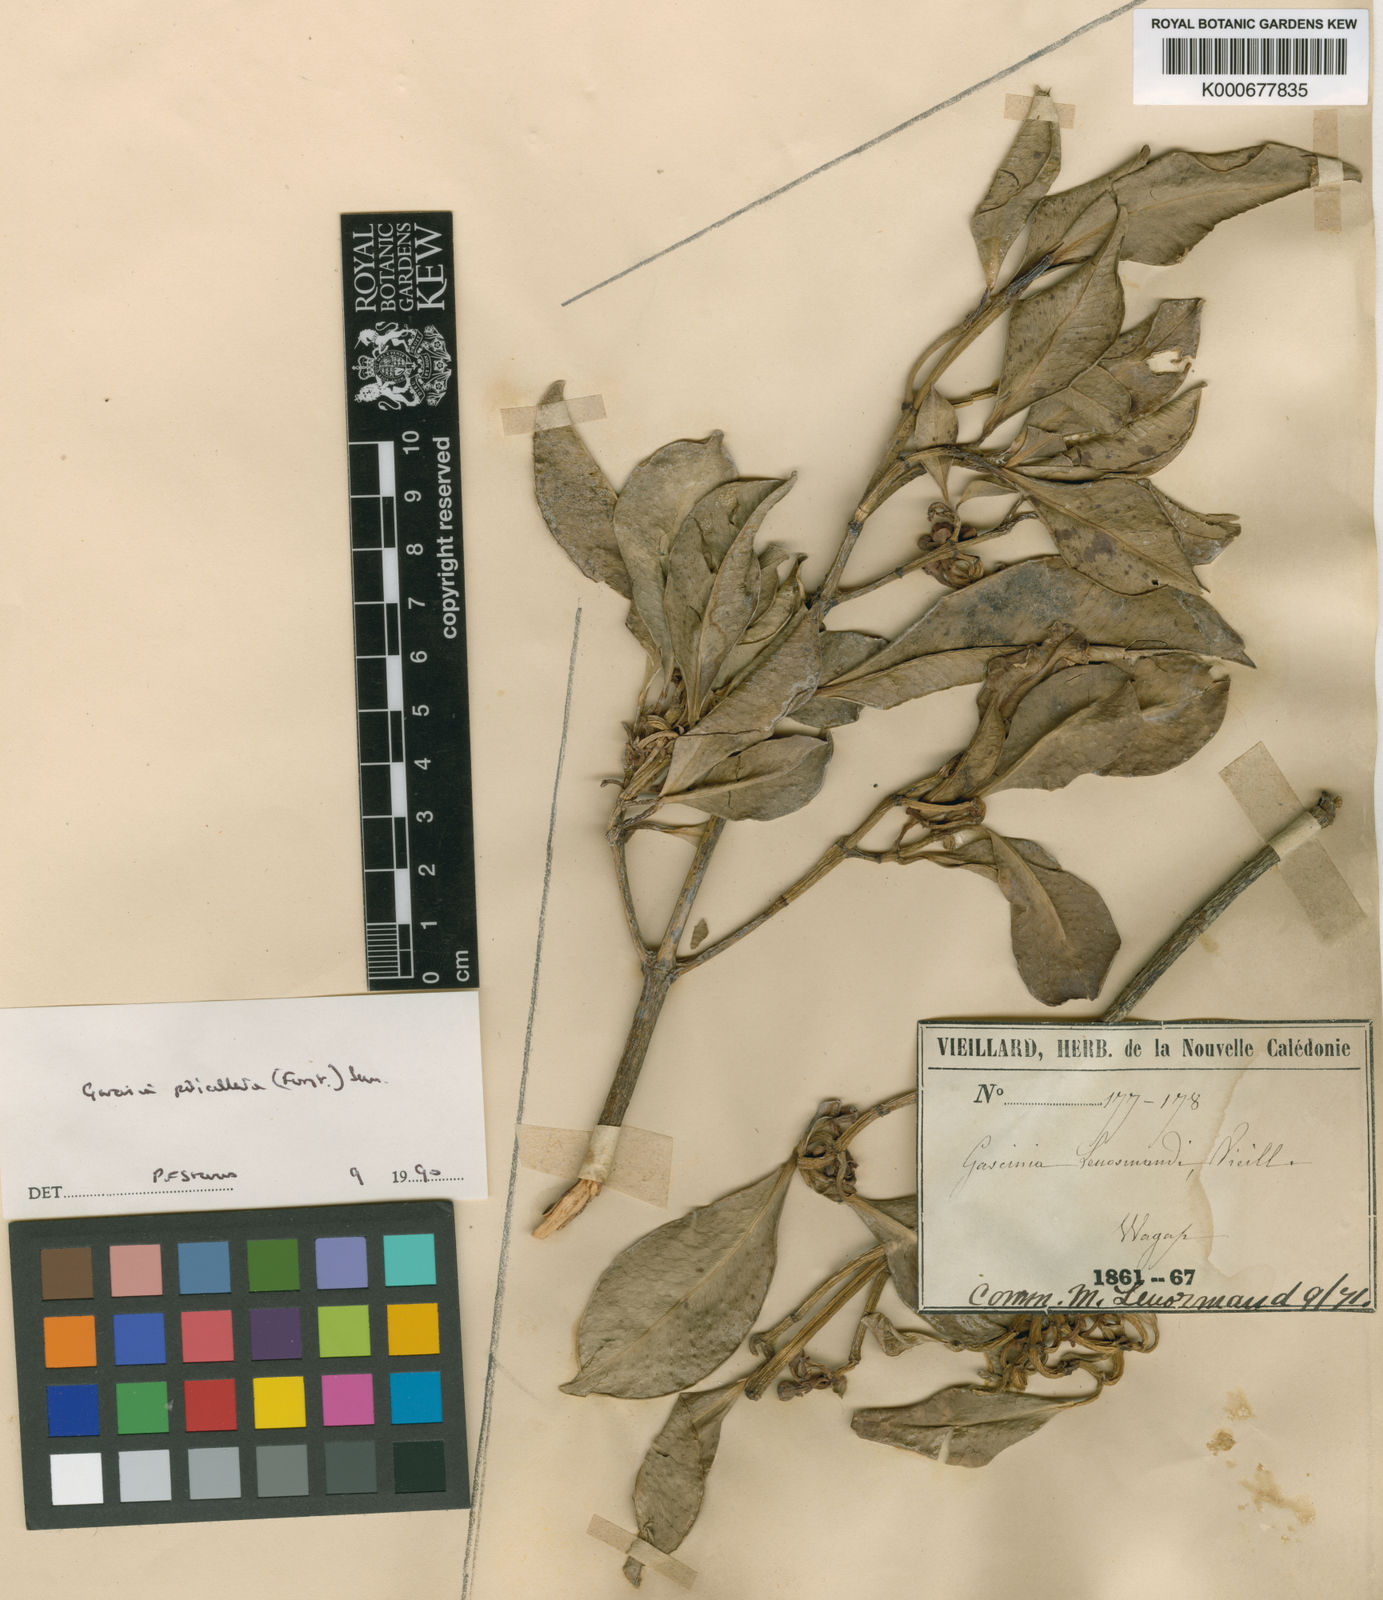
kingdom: Plantae
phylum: Tracheophyta
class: Magnoliopsida
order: Malpighiales
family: Clusiaceae
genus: Garcinia
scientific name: Garcinia pseudoguttifera
